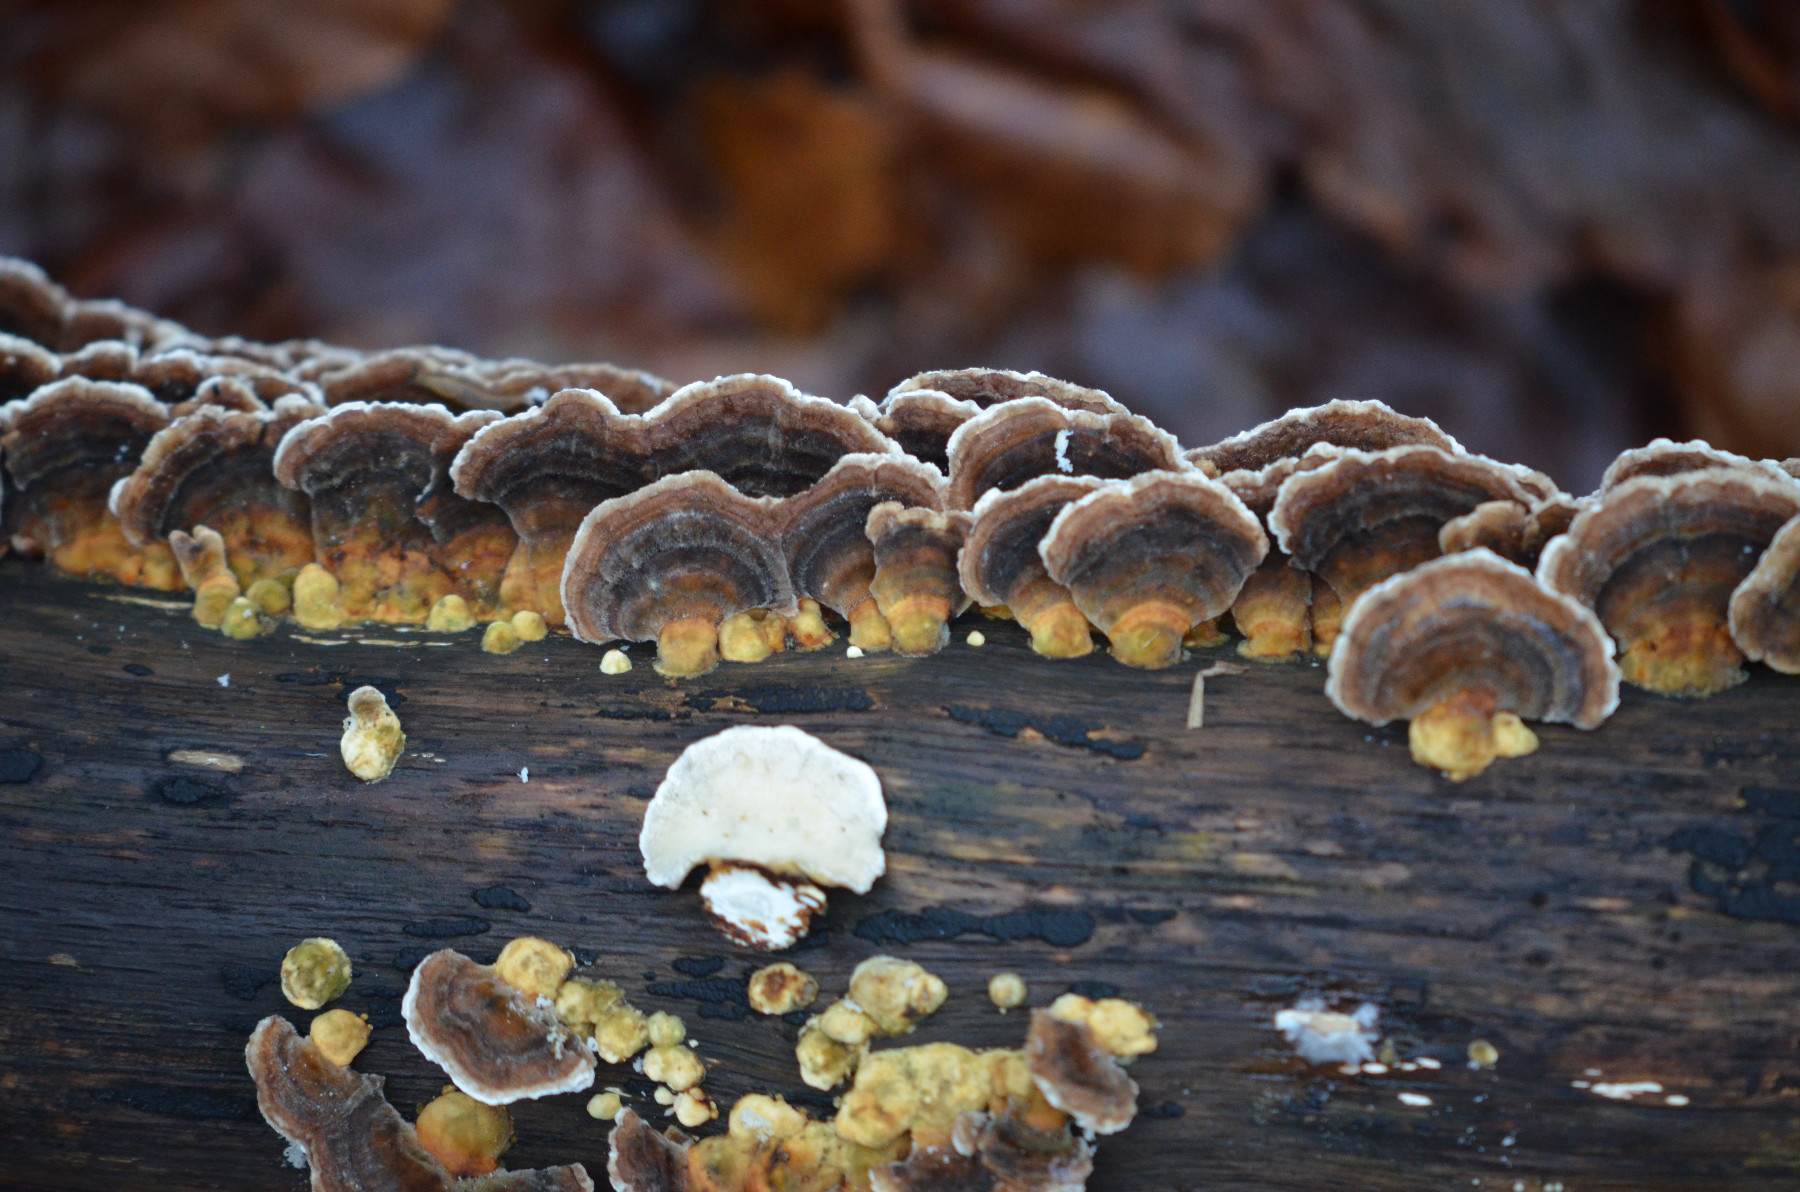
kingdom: Fungi
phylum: Basidiomycota
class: Agaricomycetes
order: Polyporales
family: Polyporaceae
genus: Trametes
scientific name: Trametes versicolor
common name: broget læderporesvamp
